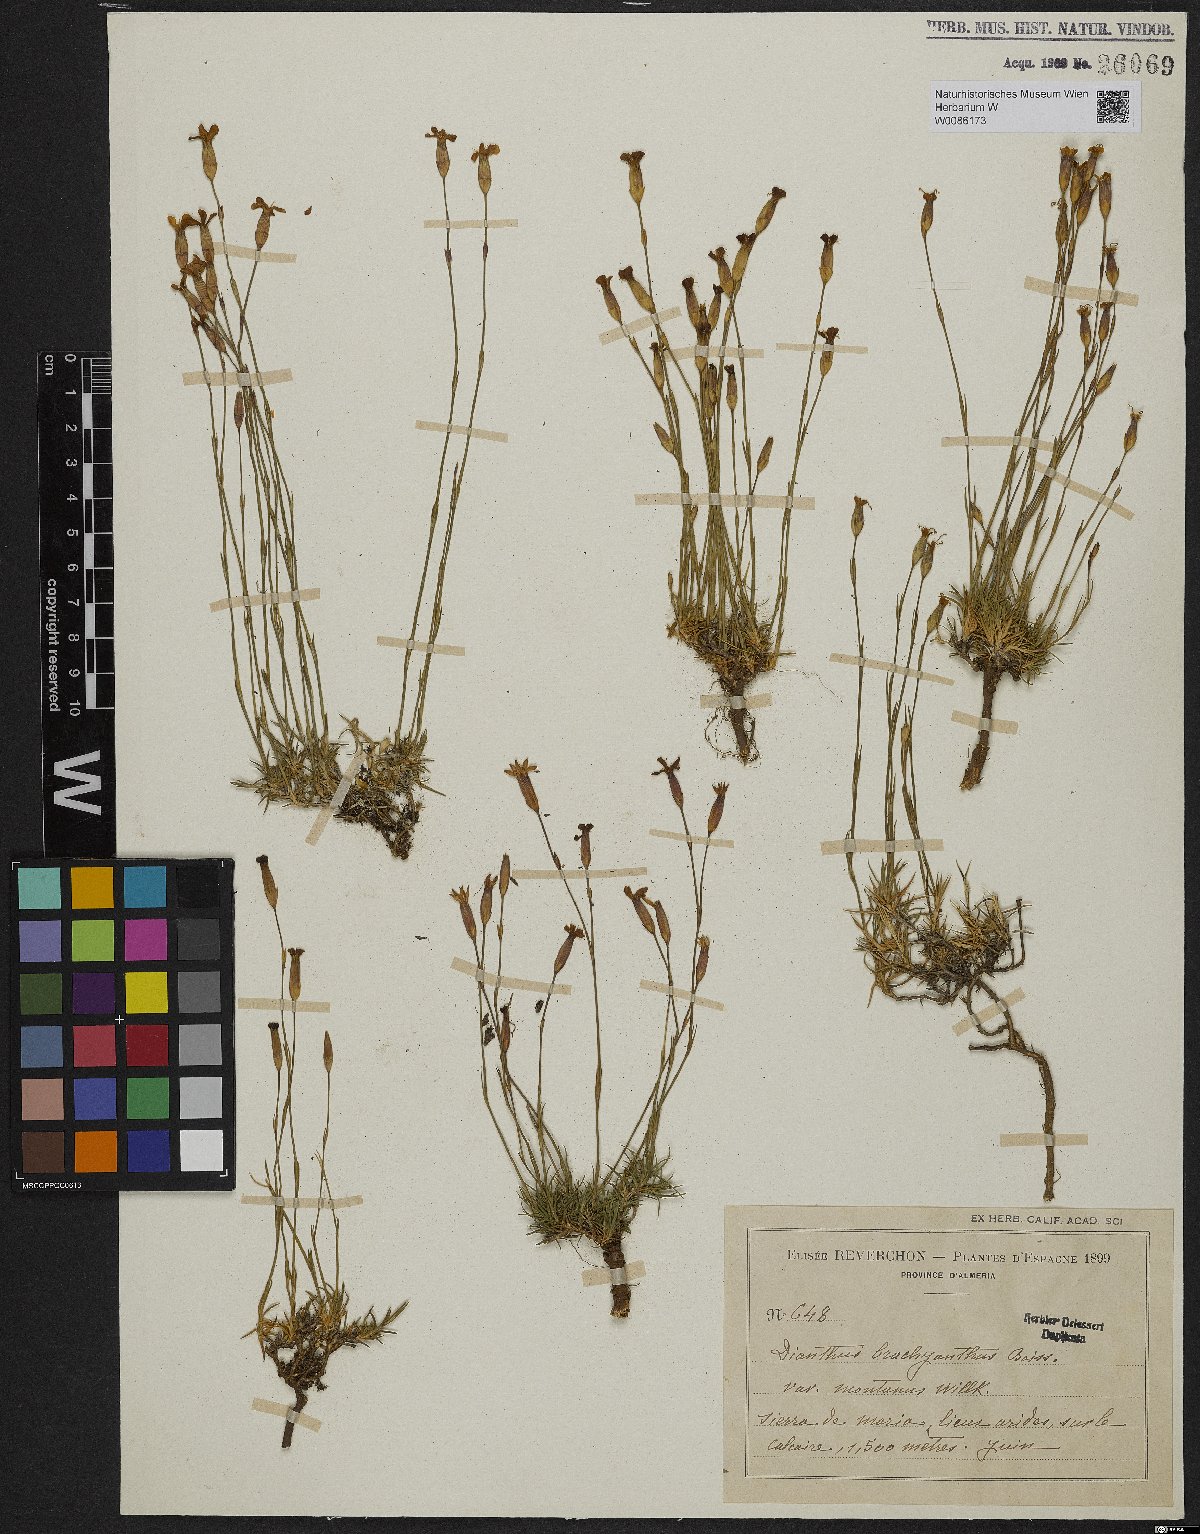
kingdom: Plantae
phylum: Tracheophyta
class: Magnoliopsida
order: Caryophyllales
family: Caryophyllaceae
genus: Dianthus
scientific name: Dianthus subacaulis
